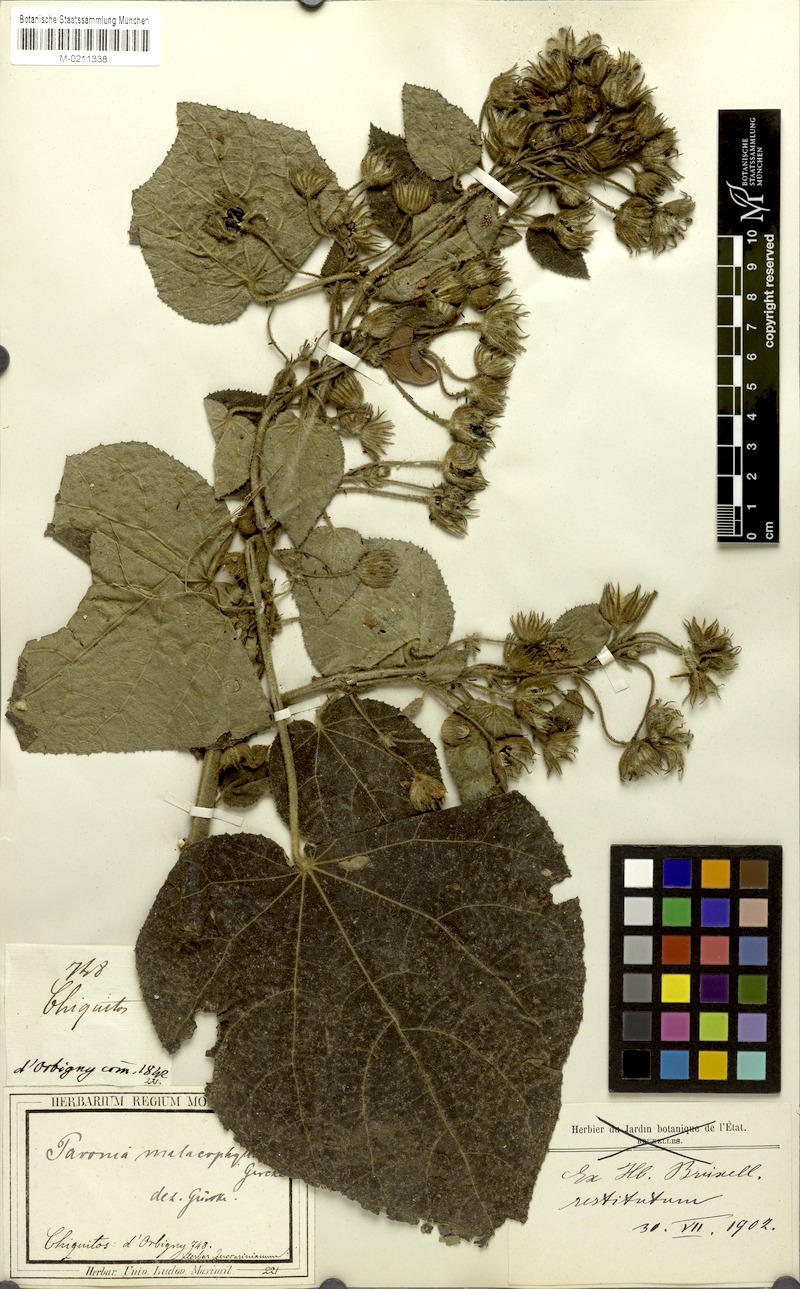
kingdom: Plantae
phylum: Tracheophyta
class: Magnoliopsida
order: Malvales
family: Malvaceae
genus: Pavonia
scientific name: Pavonia malacophylla
